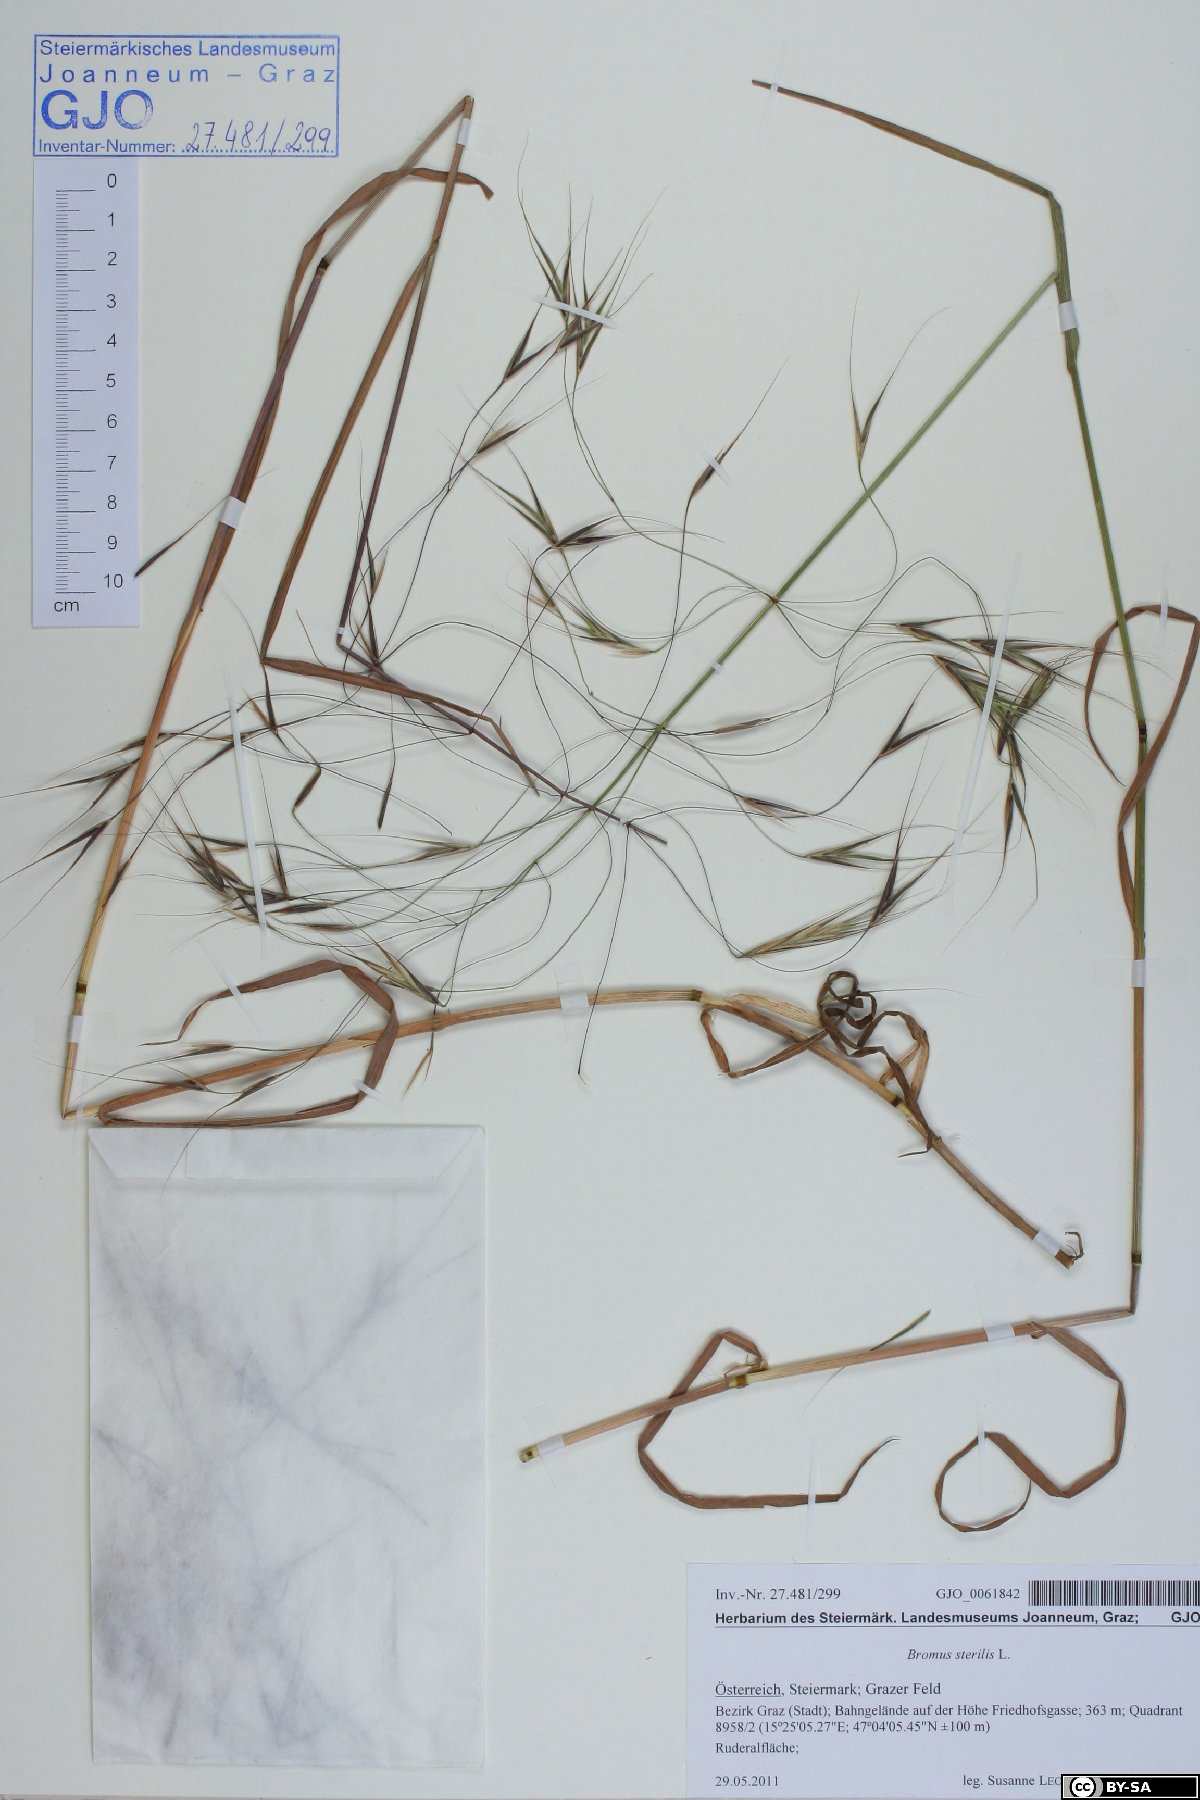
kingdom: Plantae
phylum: Tracheophyta
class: Liliopsida
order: Poales
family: Poaceae
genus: Bromus
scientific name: Bromus sterilis
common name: Poverty brome
